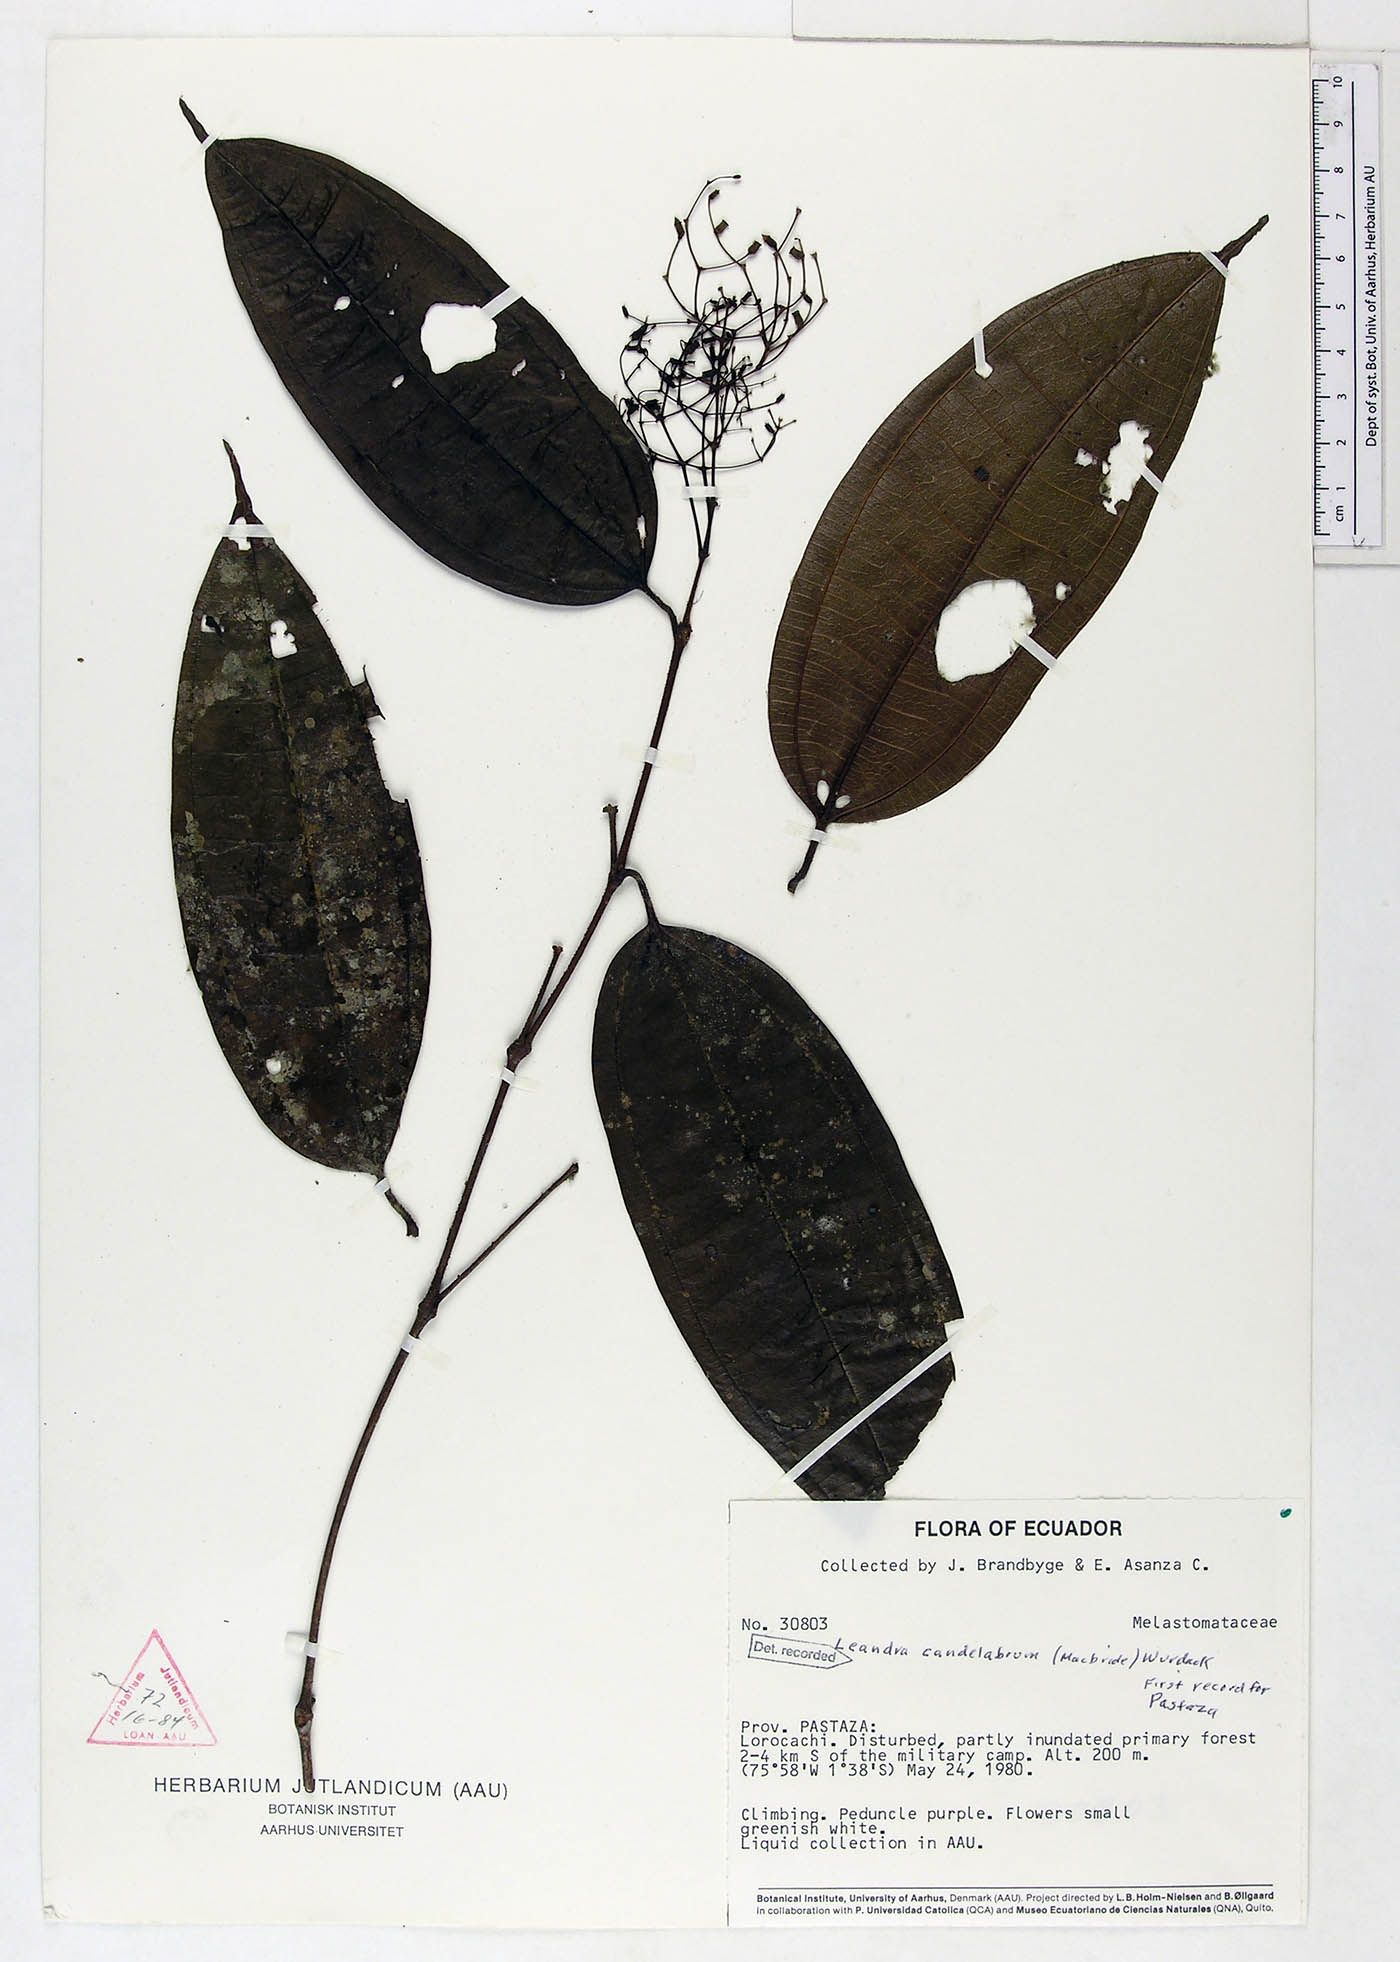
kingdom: Plantae
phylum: Tracheophyta
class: Magnoliopsida
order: Myrtales
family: Melastomataceae
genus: Miconia
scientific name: Miconia candelabrum
